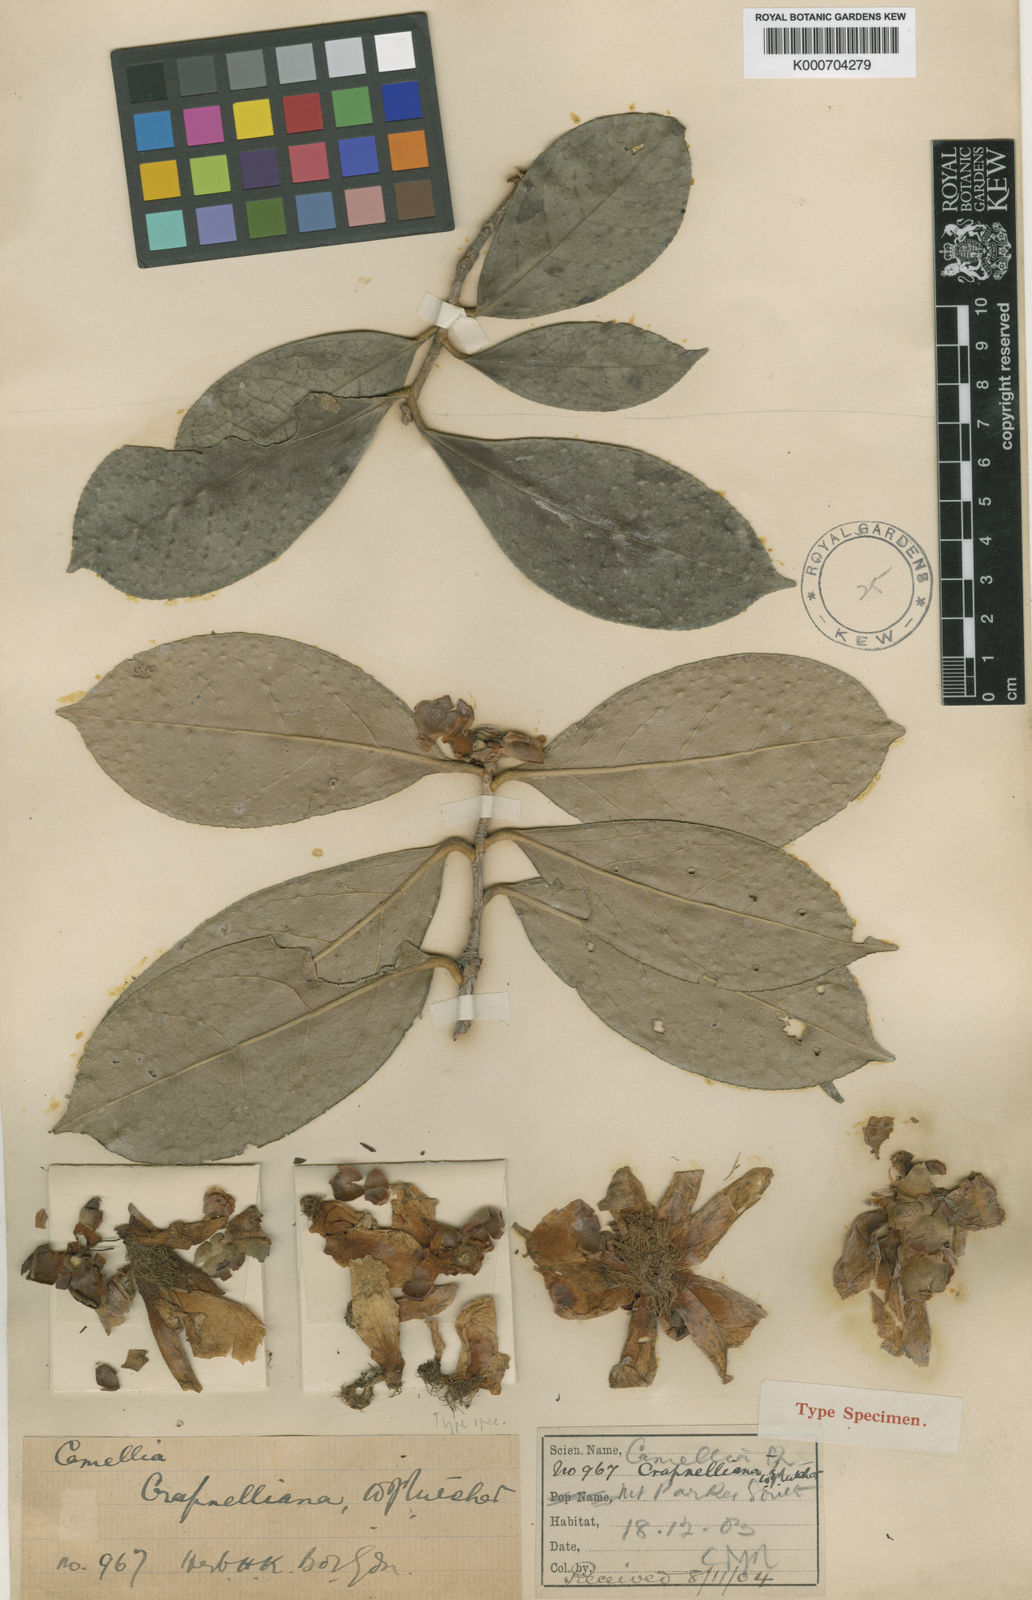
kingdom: Plantae
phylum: Tracheophyta
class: Magnoliopsida
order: Ericales
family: Theaceae
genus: Camellia
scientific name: Camellia crapnelliana
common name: Crapnell's camellia
